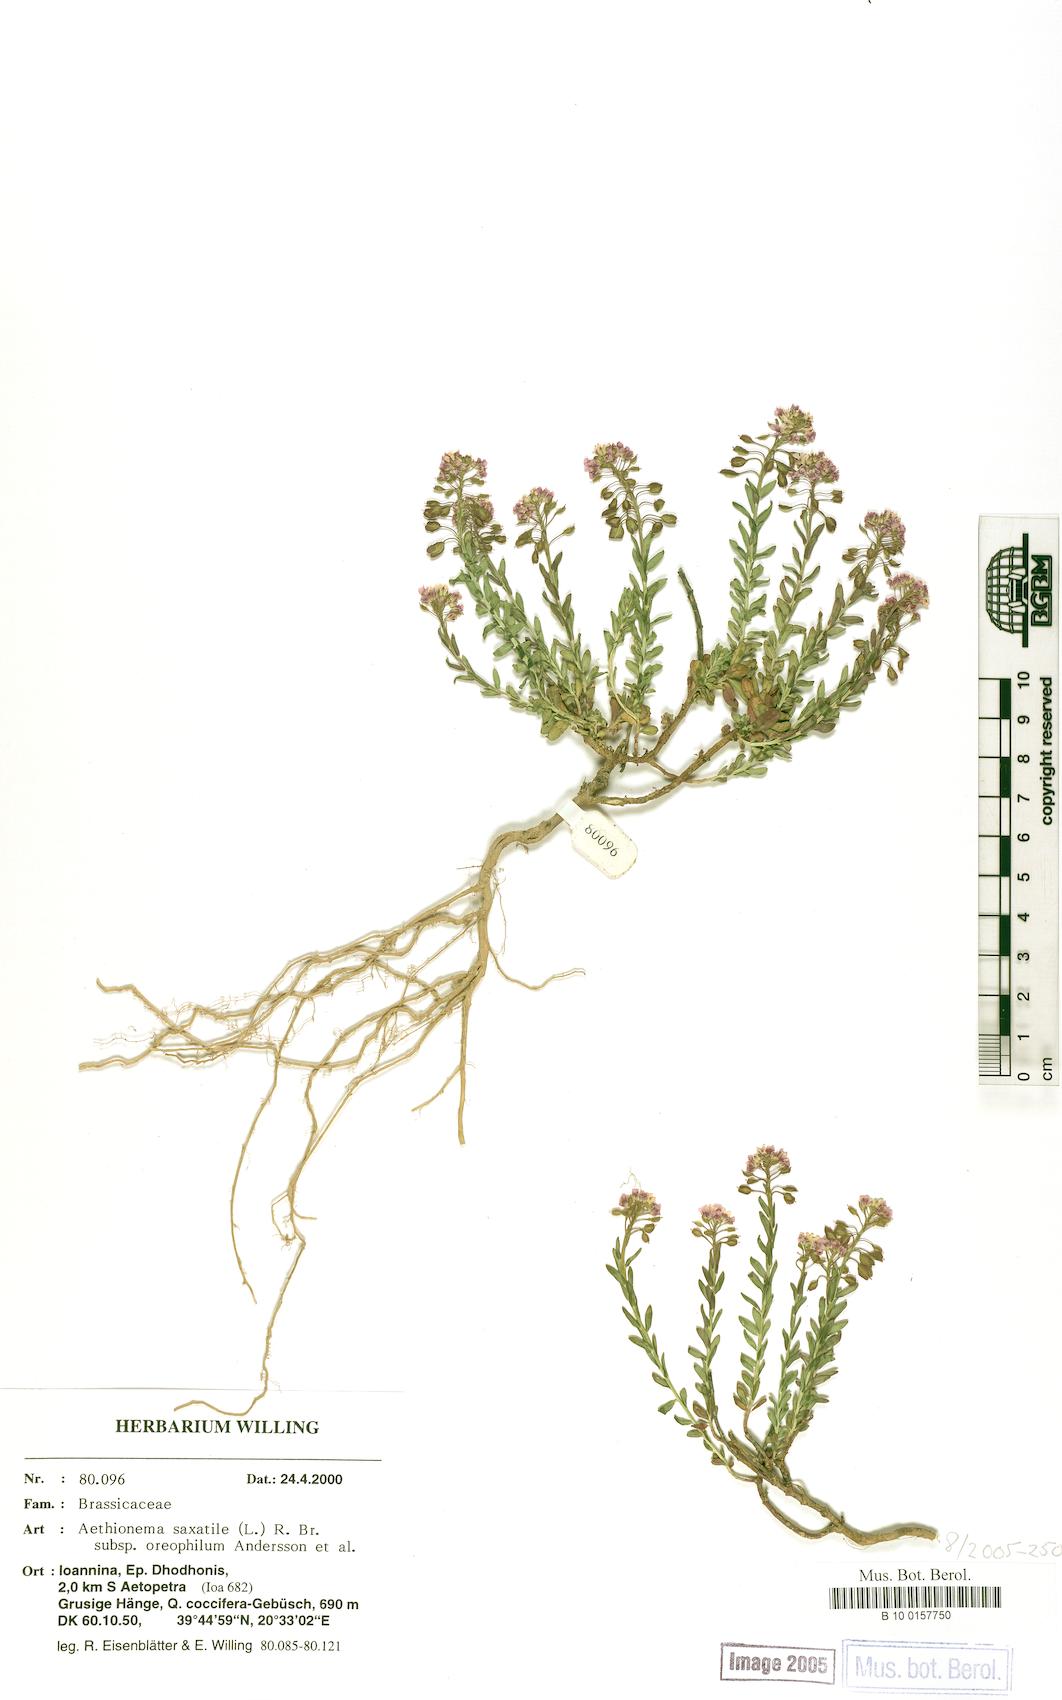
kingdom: Plantae
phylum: Tracheophyta
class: Magnoliopsida
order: Brassicales
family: Brassicaceae
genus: Aethionema
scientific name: Aethionema saxatile
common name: Burnt candytuft
